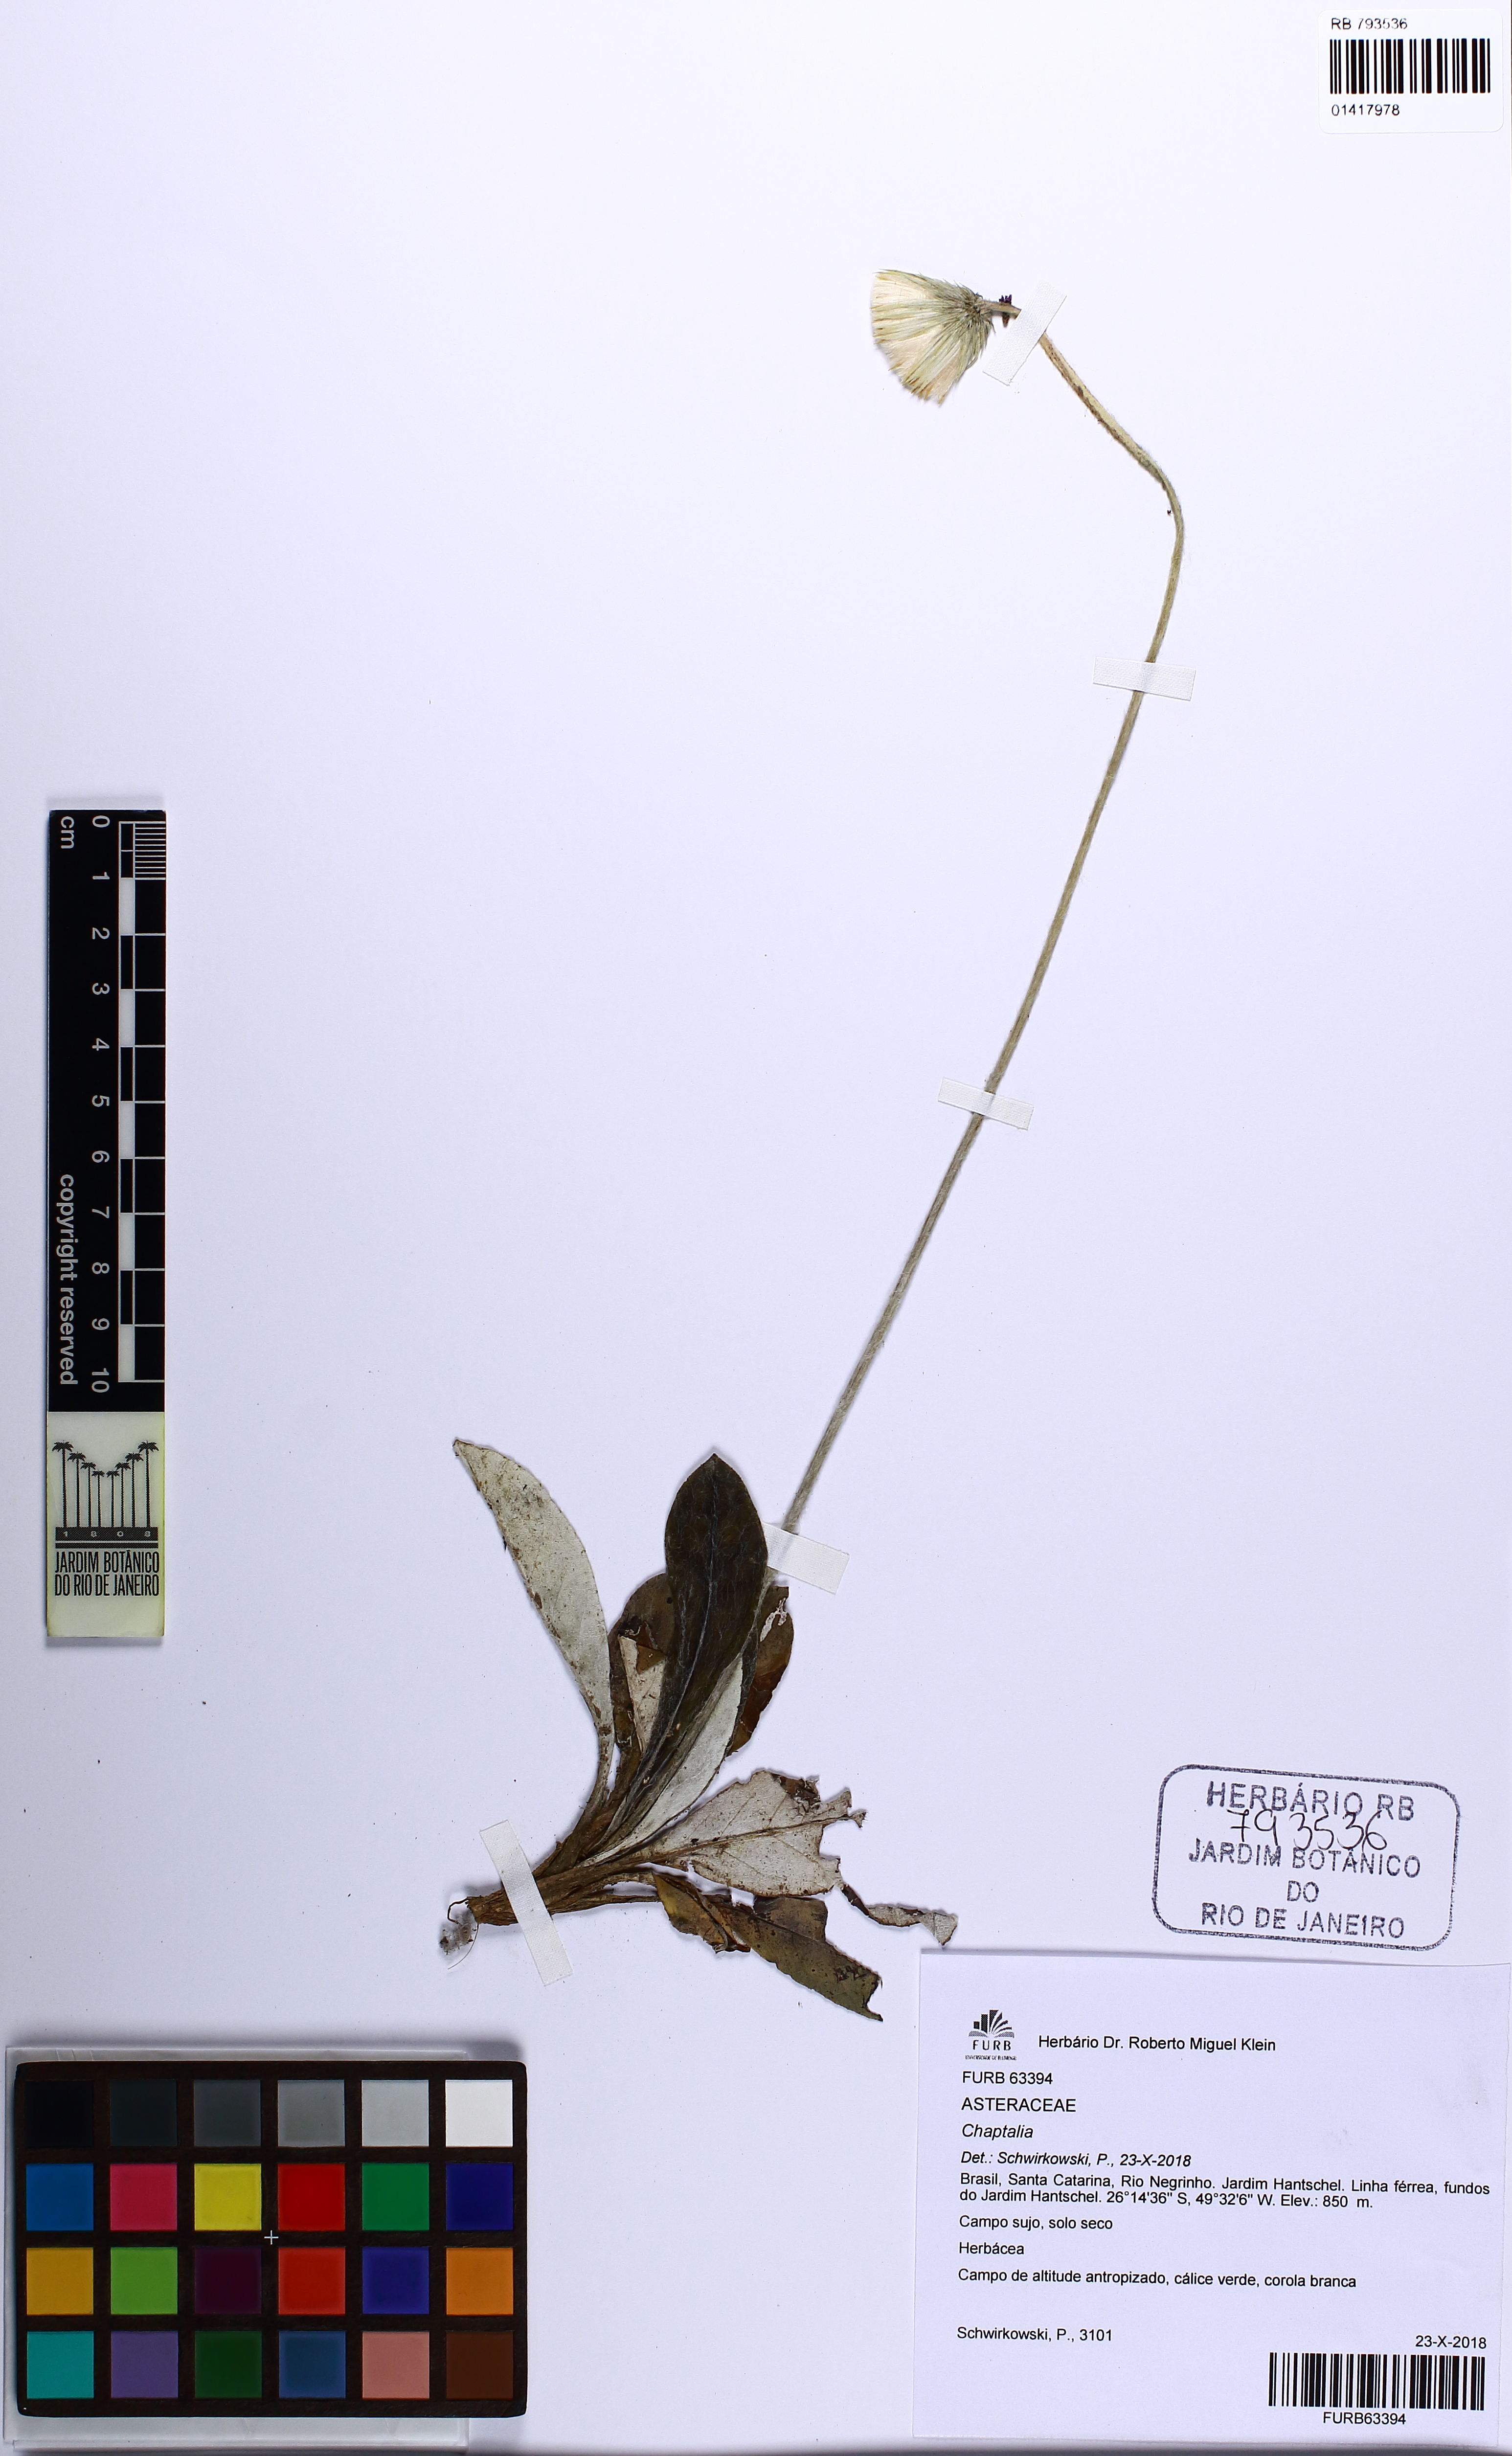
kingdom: Plantae
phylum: Tracheophyta
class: Magnoliopsida
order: Asterales
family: Asteraceae
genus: Chaptalia
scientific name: Chaptalia
